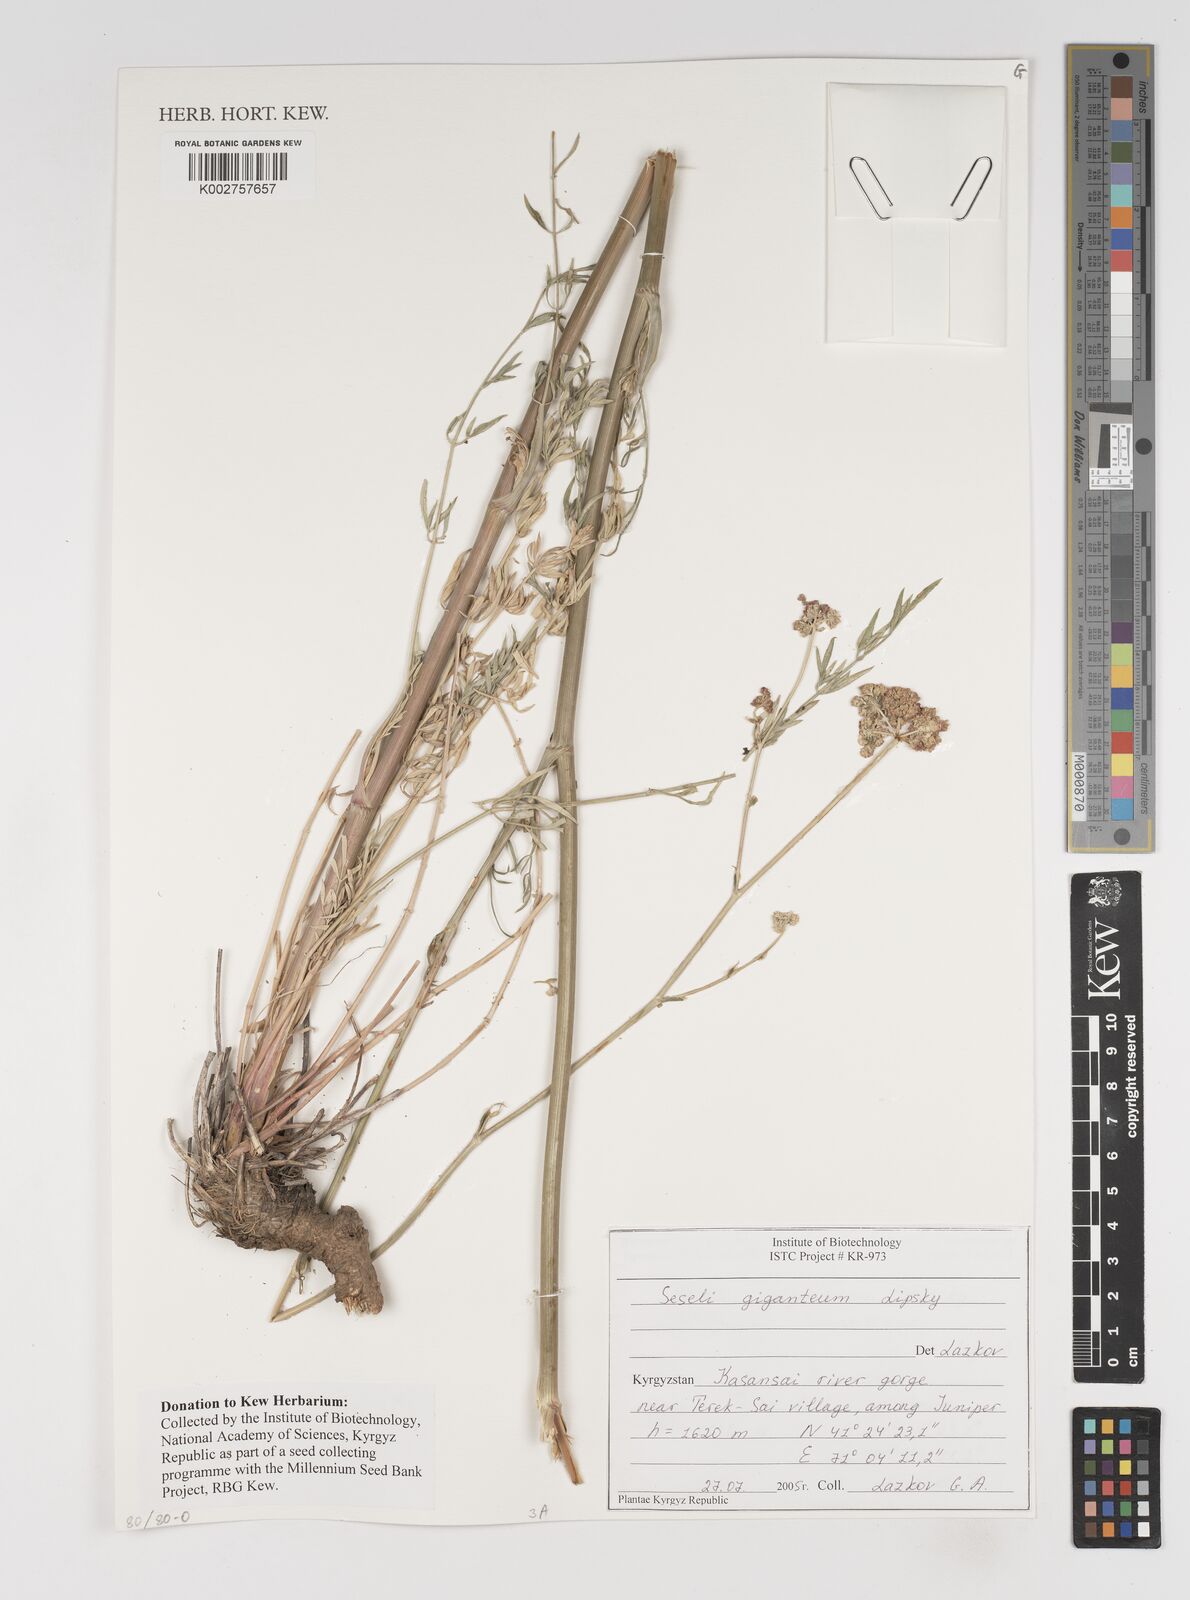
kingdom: Plantae
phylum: Tracheophyta
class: Magnoliopsida
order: Apiales
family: Apiaceae
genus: Seseli
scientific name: Seseli giganteum
